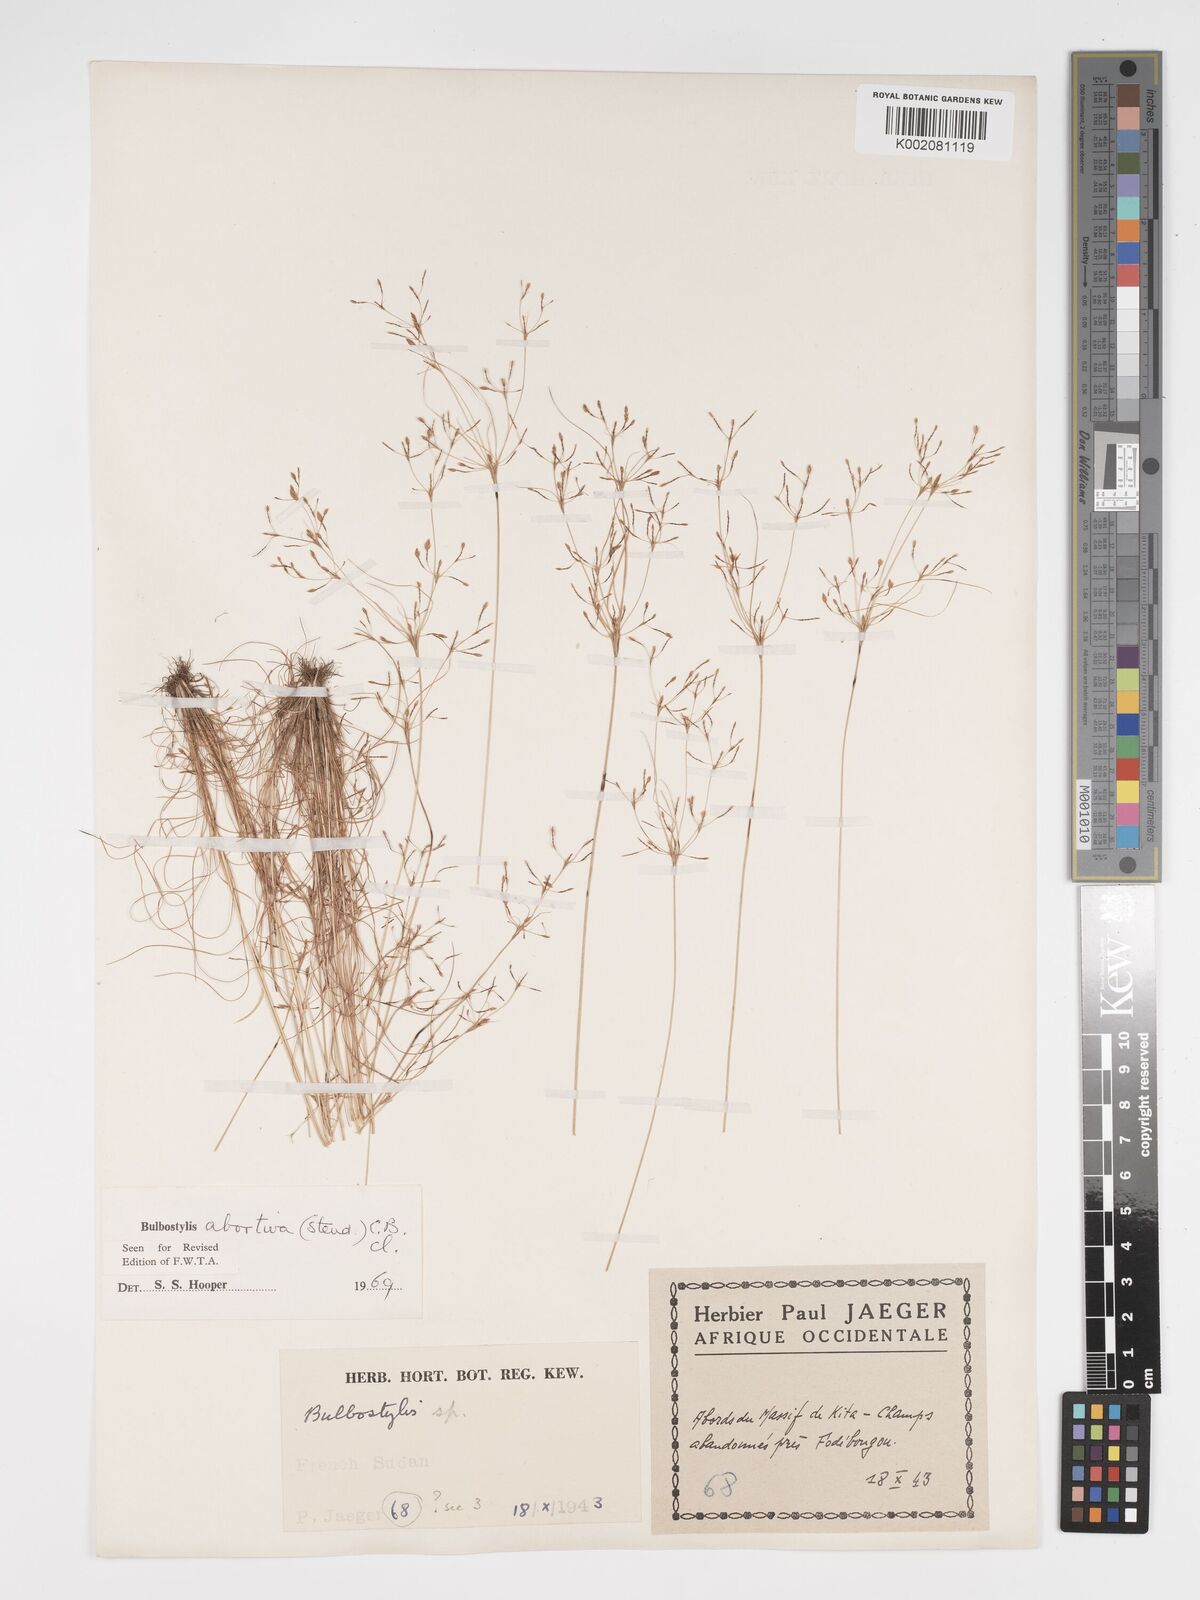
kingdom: Plantae
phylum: Tracheophyta
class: Liliopsida
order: Poales
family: Cyperaceae
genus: Bulbostylis
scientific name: Bulbostylis abortiva
